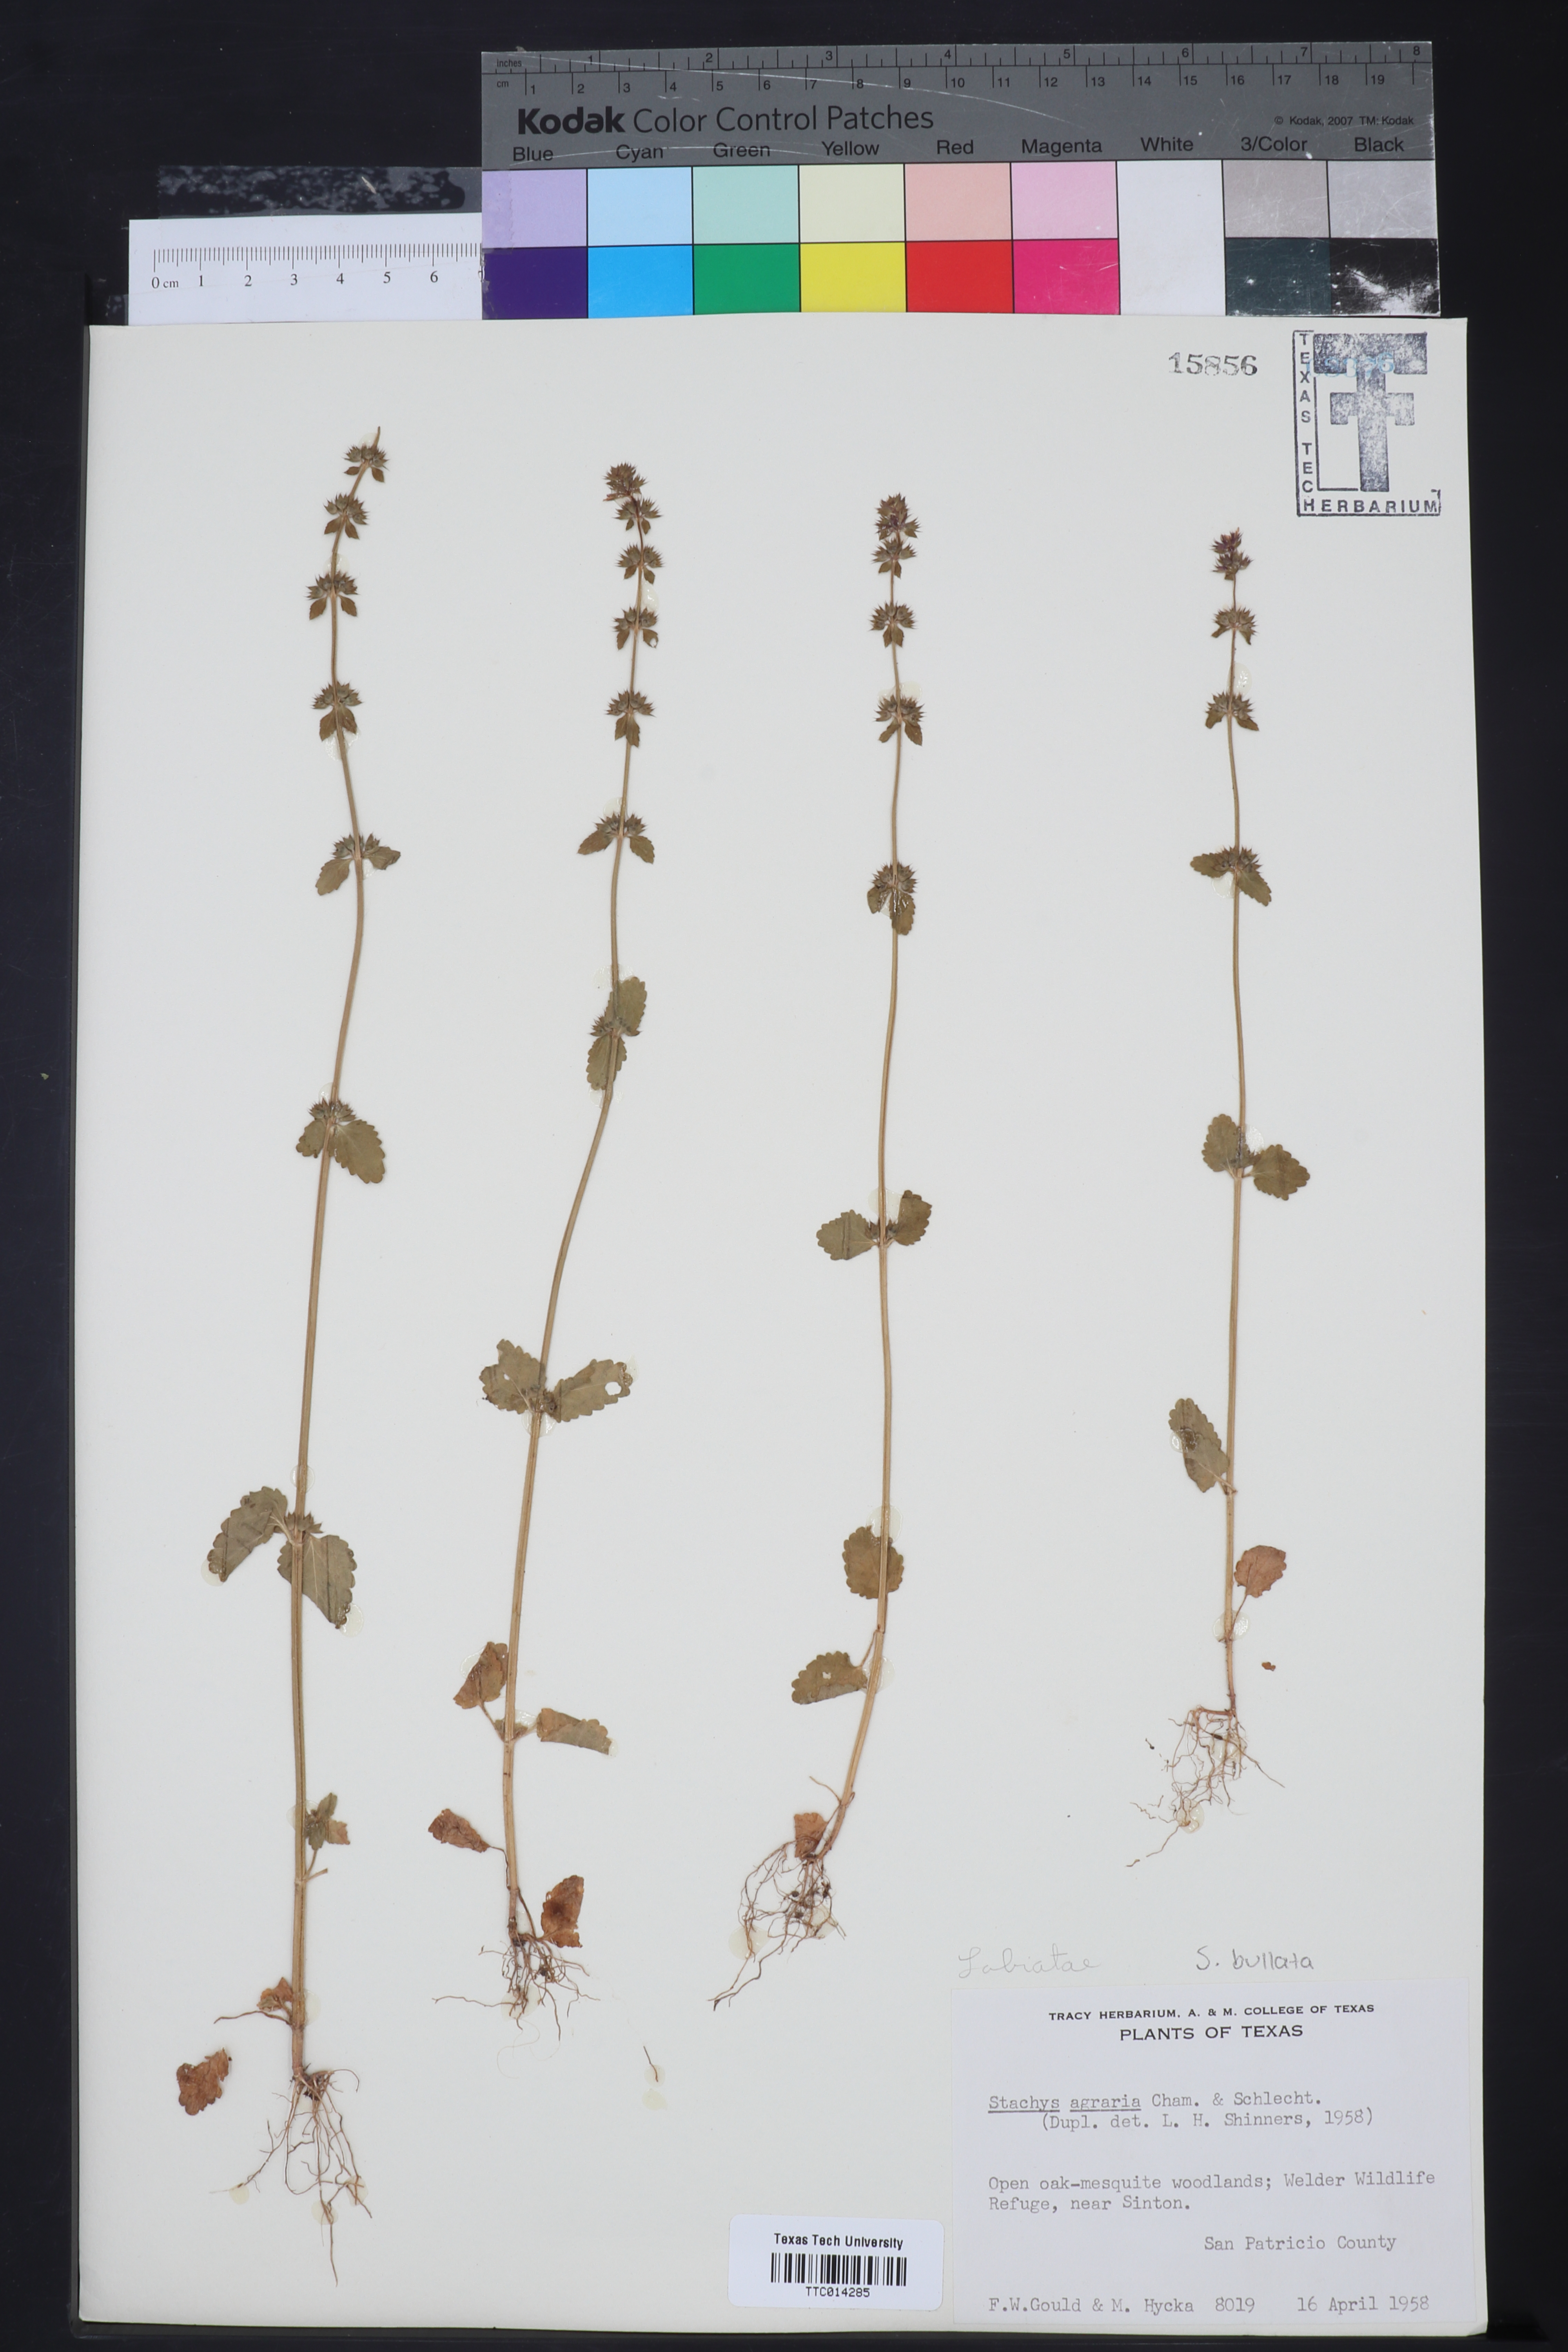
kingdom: Plantae
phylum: Tracheophyta
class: Magnoliopsida
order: Lamiales
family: Lamiaceae
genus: Stachys
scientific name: Stachys agraria
